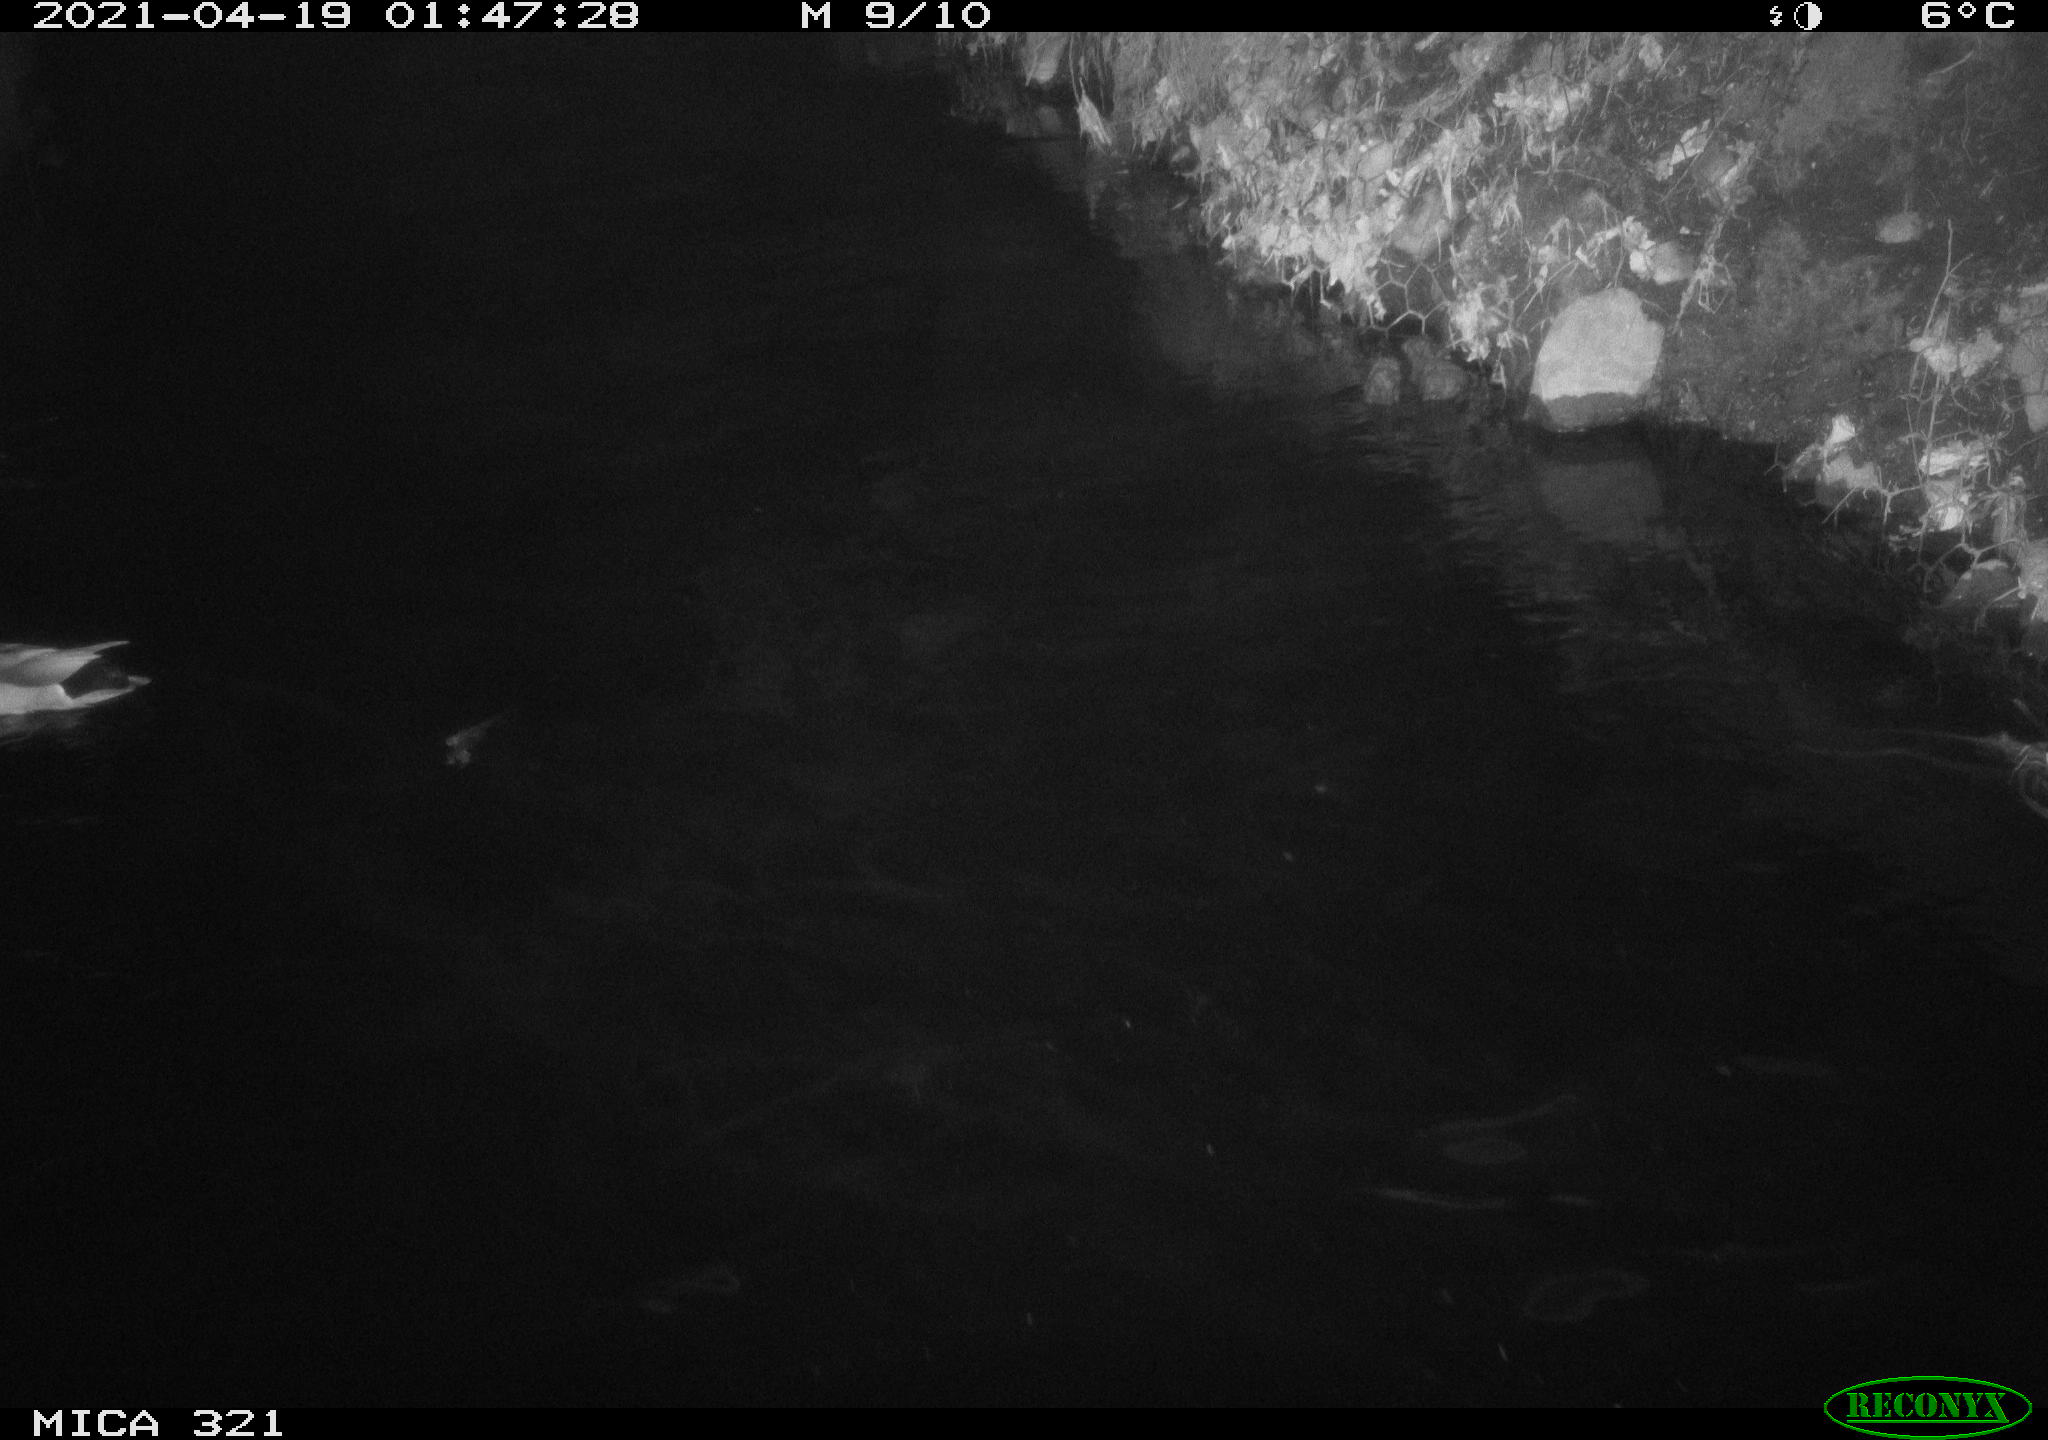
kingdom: Animalia
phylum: Chordata
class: Aves
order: Anseriformes
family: Anatidae
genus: Anas
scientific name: Anas
